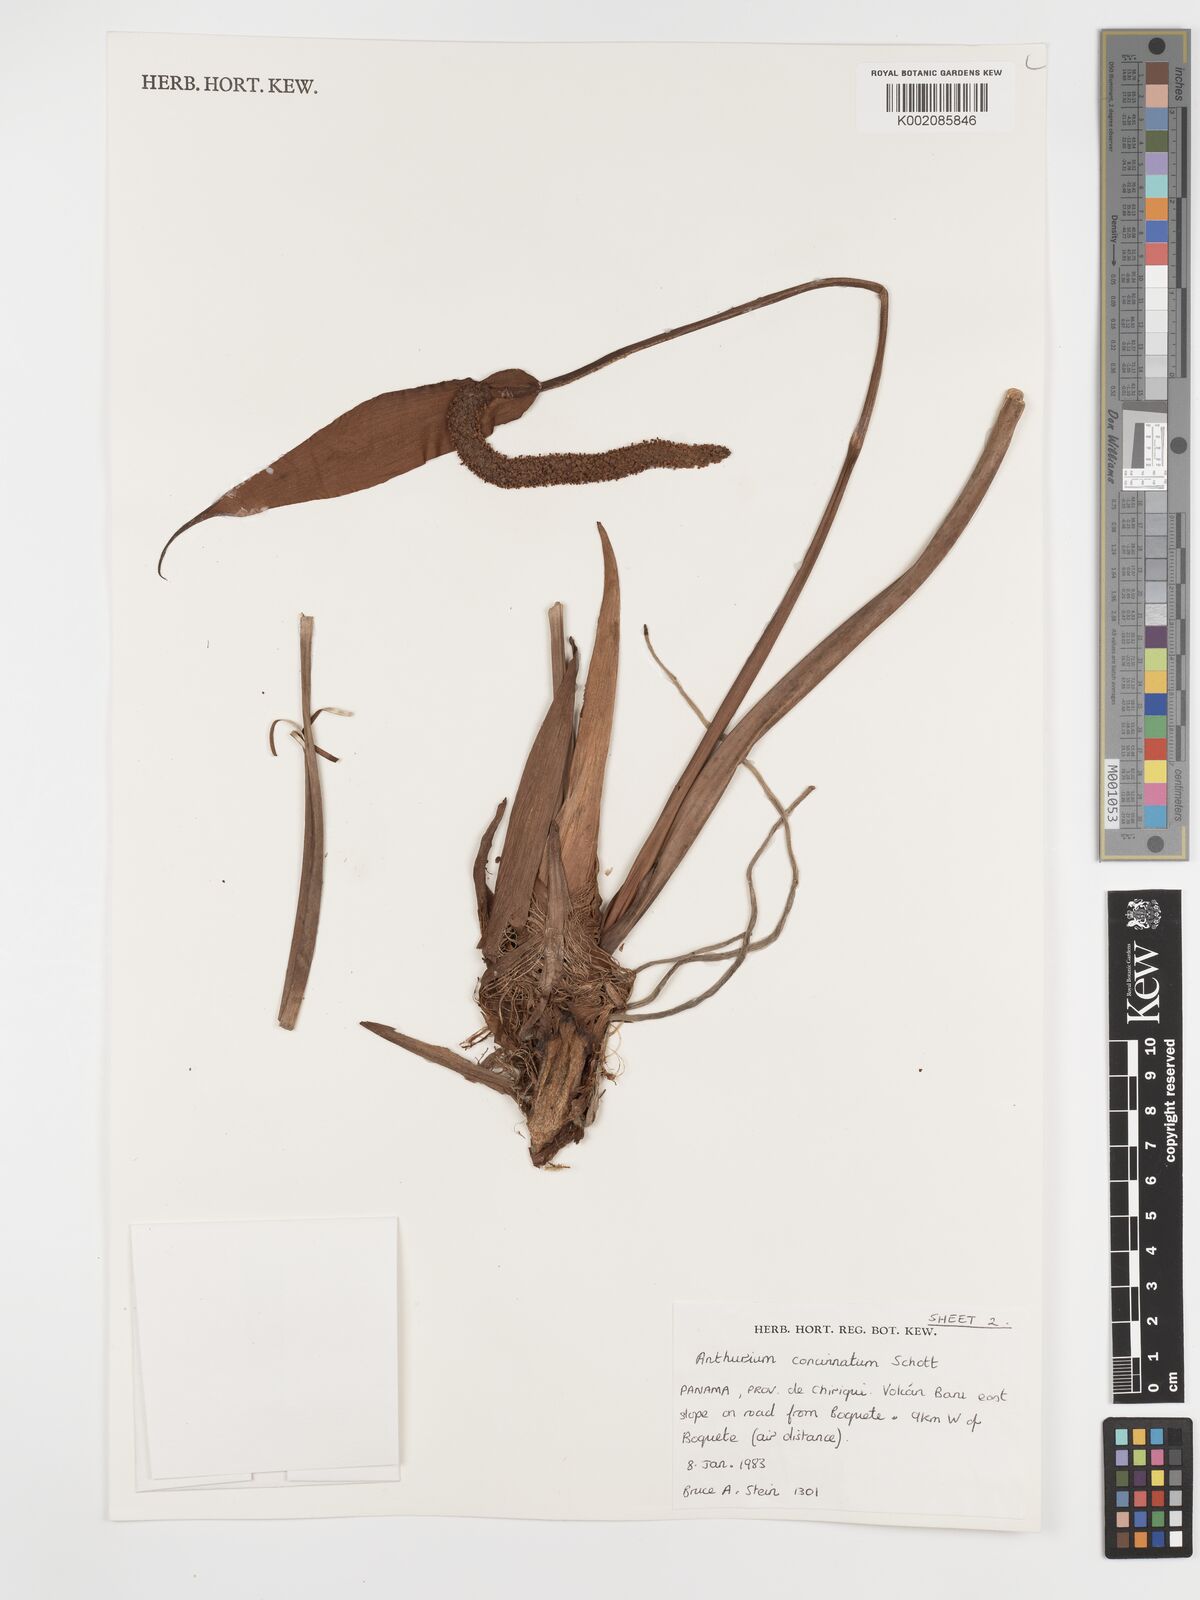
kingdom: Plantae
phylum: Tracheophyta
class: Liliopsida
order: Alismatales
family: Araceae
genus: Anthurium
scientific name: Anthurium concinnatum
